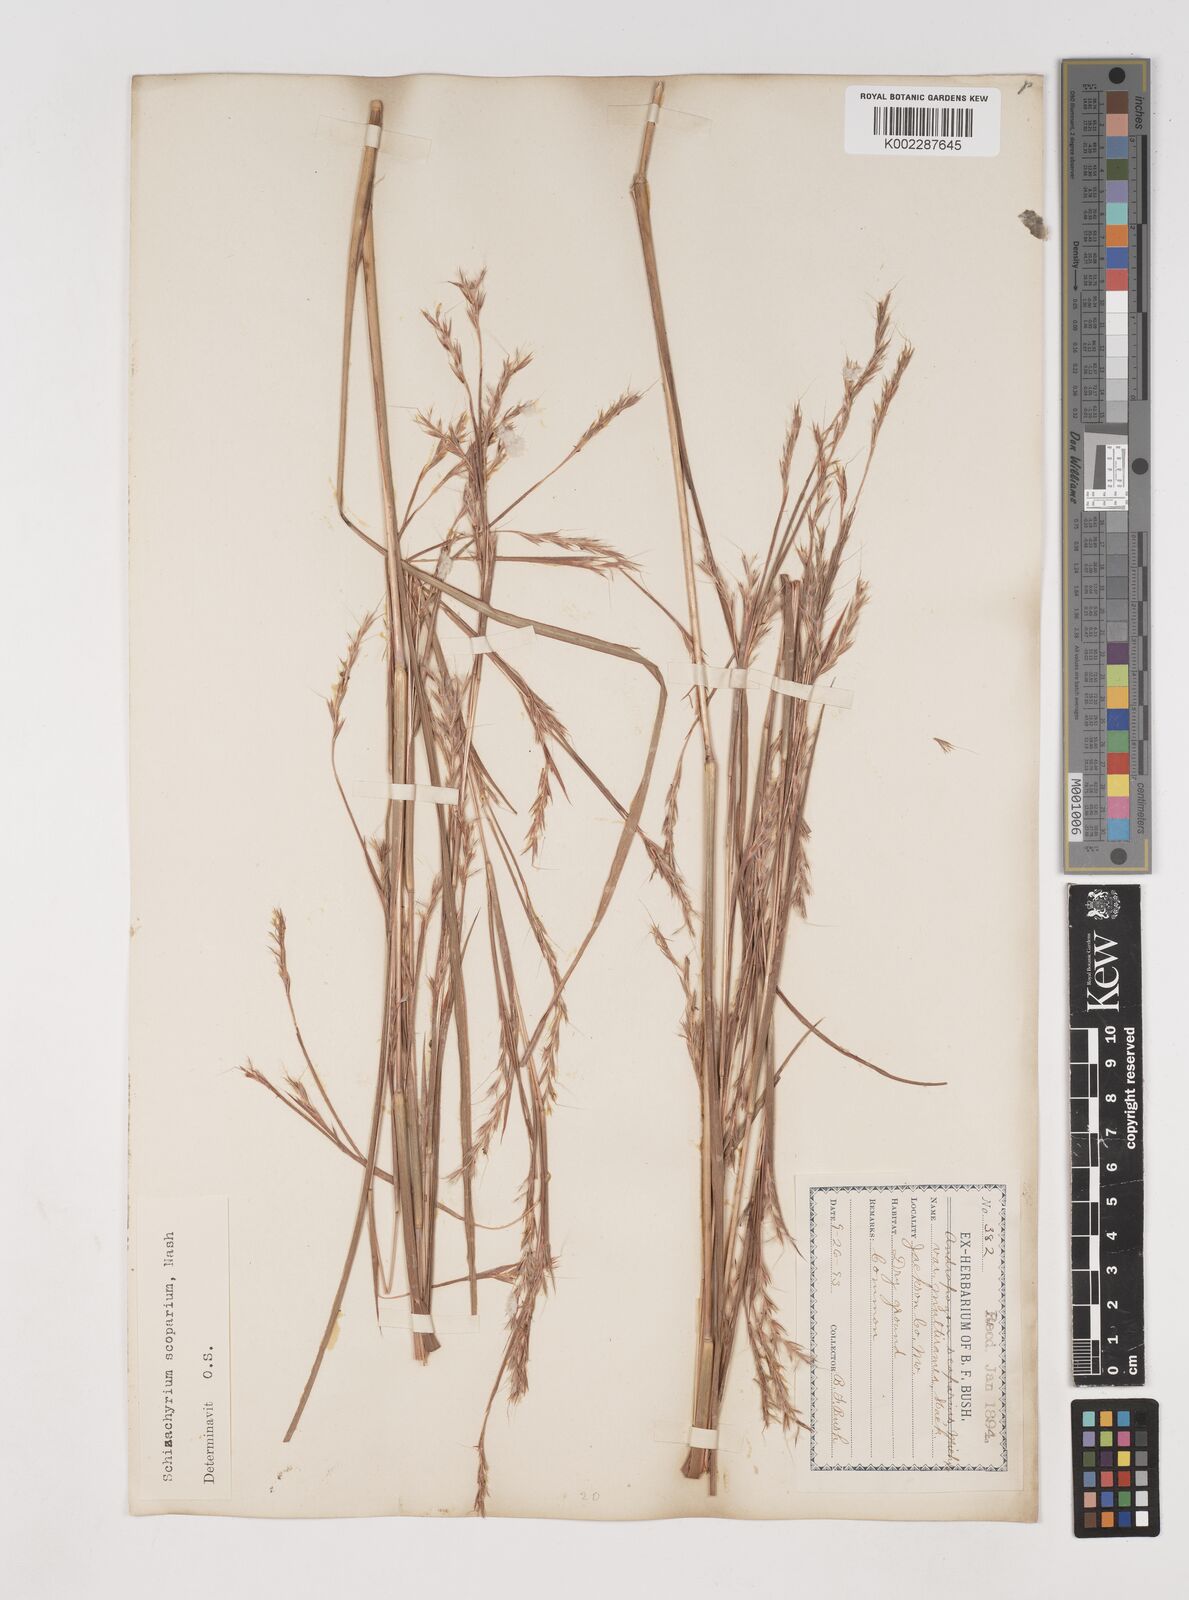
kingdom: Plantae
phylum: Tracheophyta
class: Liliopsida
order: Poales
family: Poaceae
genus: Schizachyrium
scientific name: Schizachyrium scoparium
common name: Little bluestem
